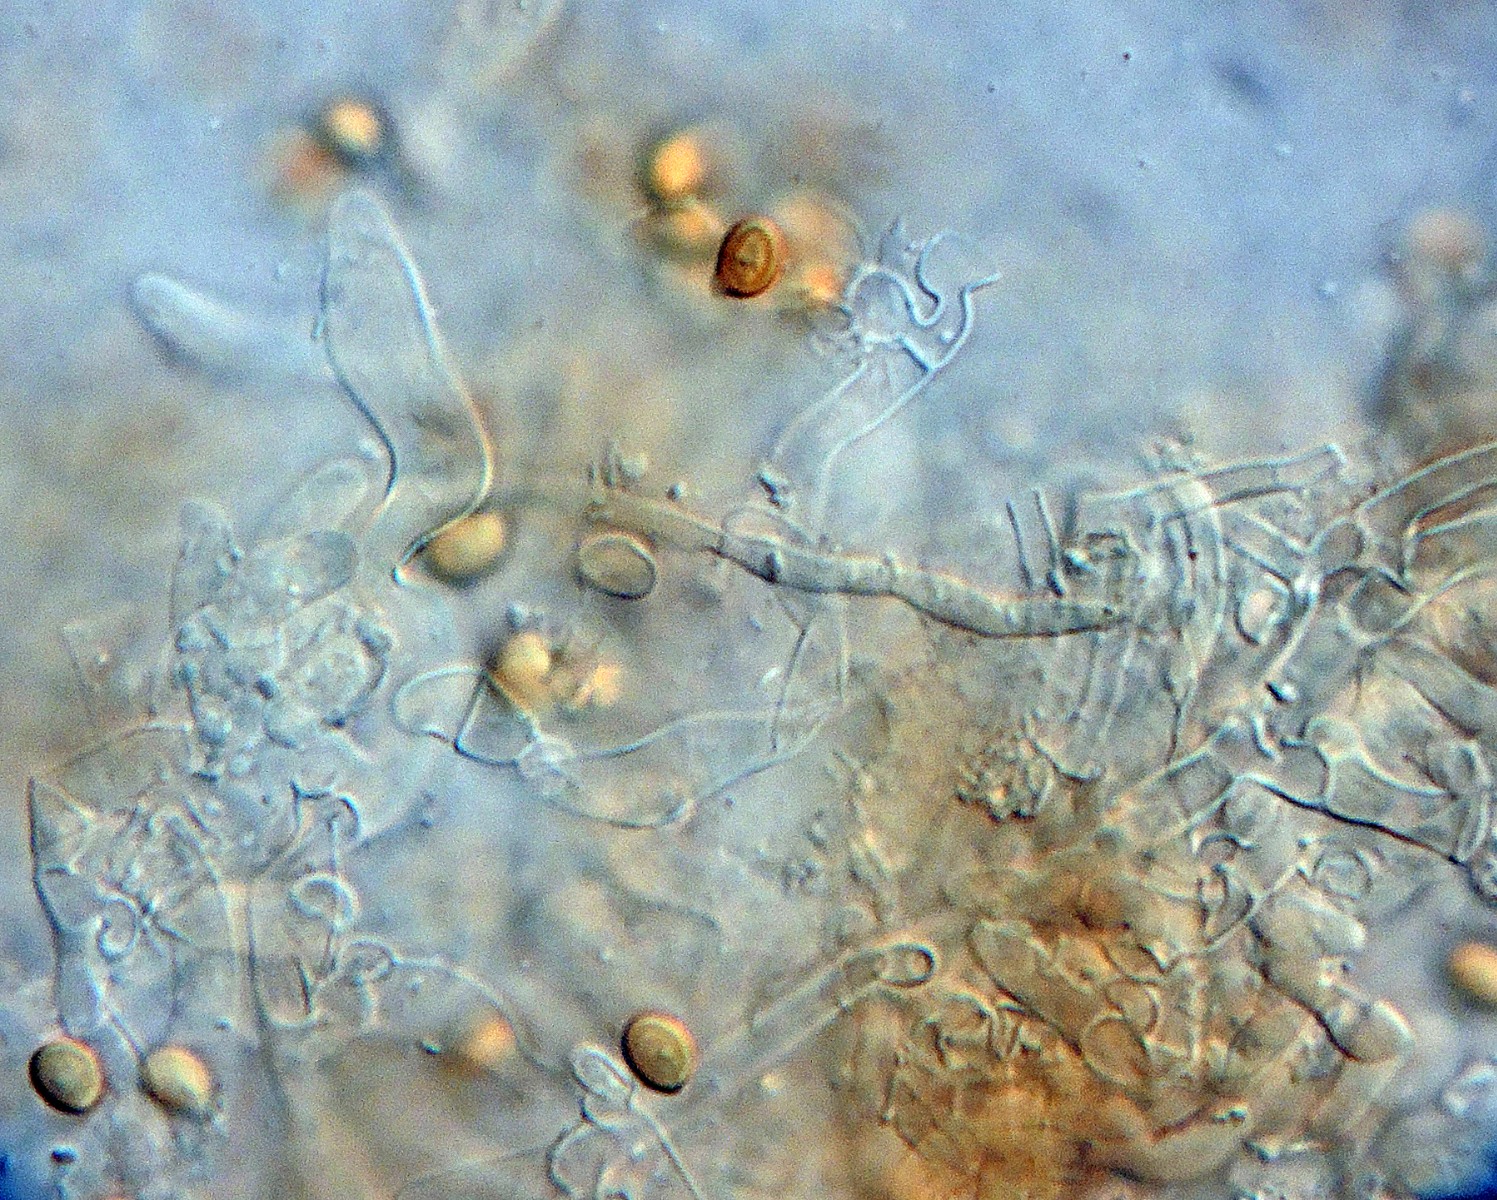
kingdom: Fungi
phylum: Basidiomycota
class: Agaricomycetes
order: Thelephorales
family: Thelephoraceae
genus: Amaurodon
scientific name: Amaurodon mustialaensis
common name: blåsporet frynsehinde
